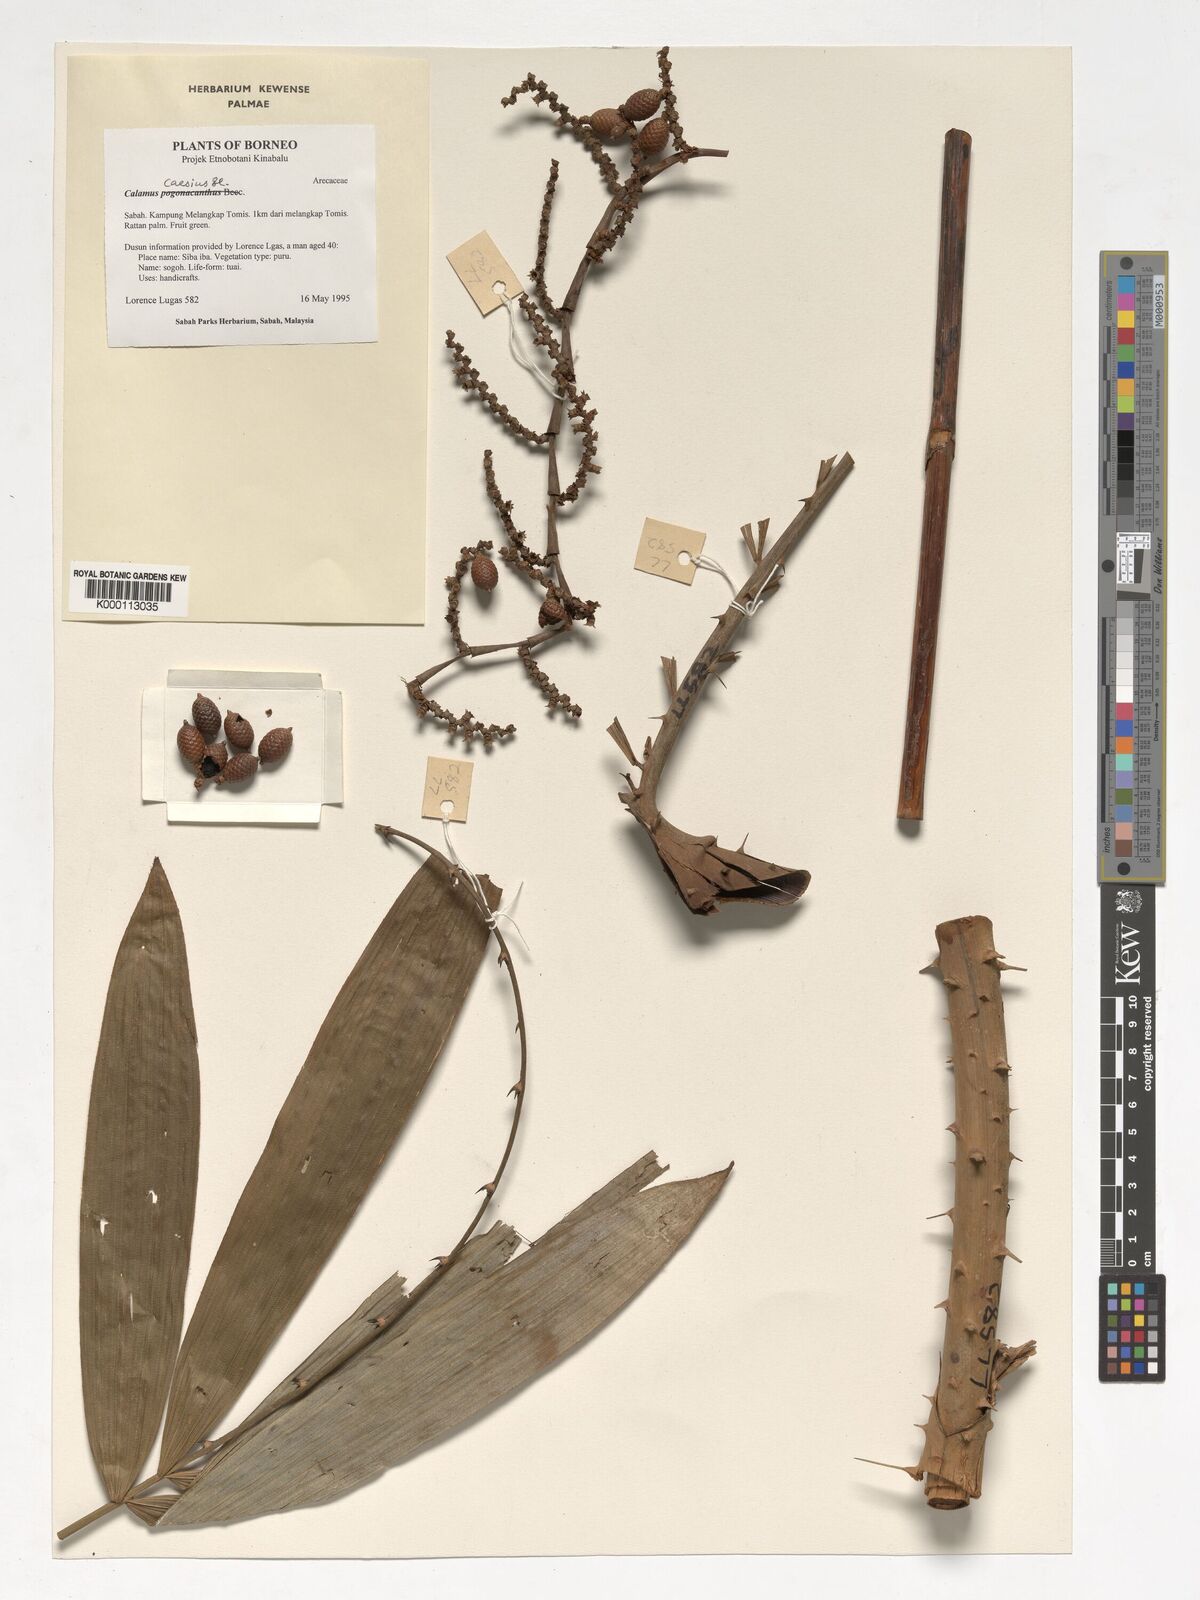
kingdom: Plantae
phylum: Tracheophyta
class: Liliopsida
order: Arecales
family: Arecaceae
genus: Calamus
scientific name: Calamus caesius
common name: Rattan palm
